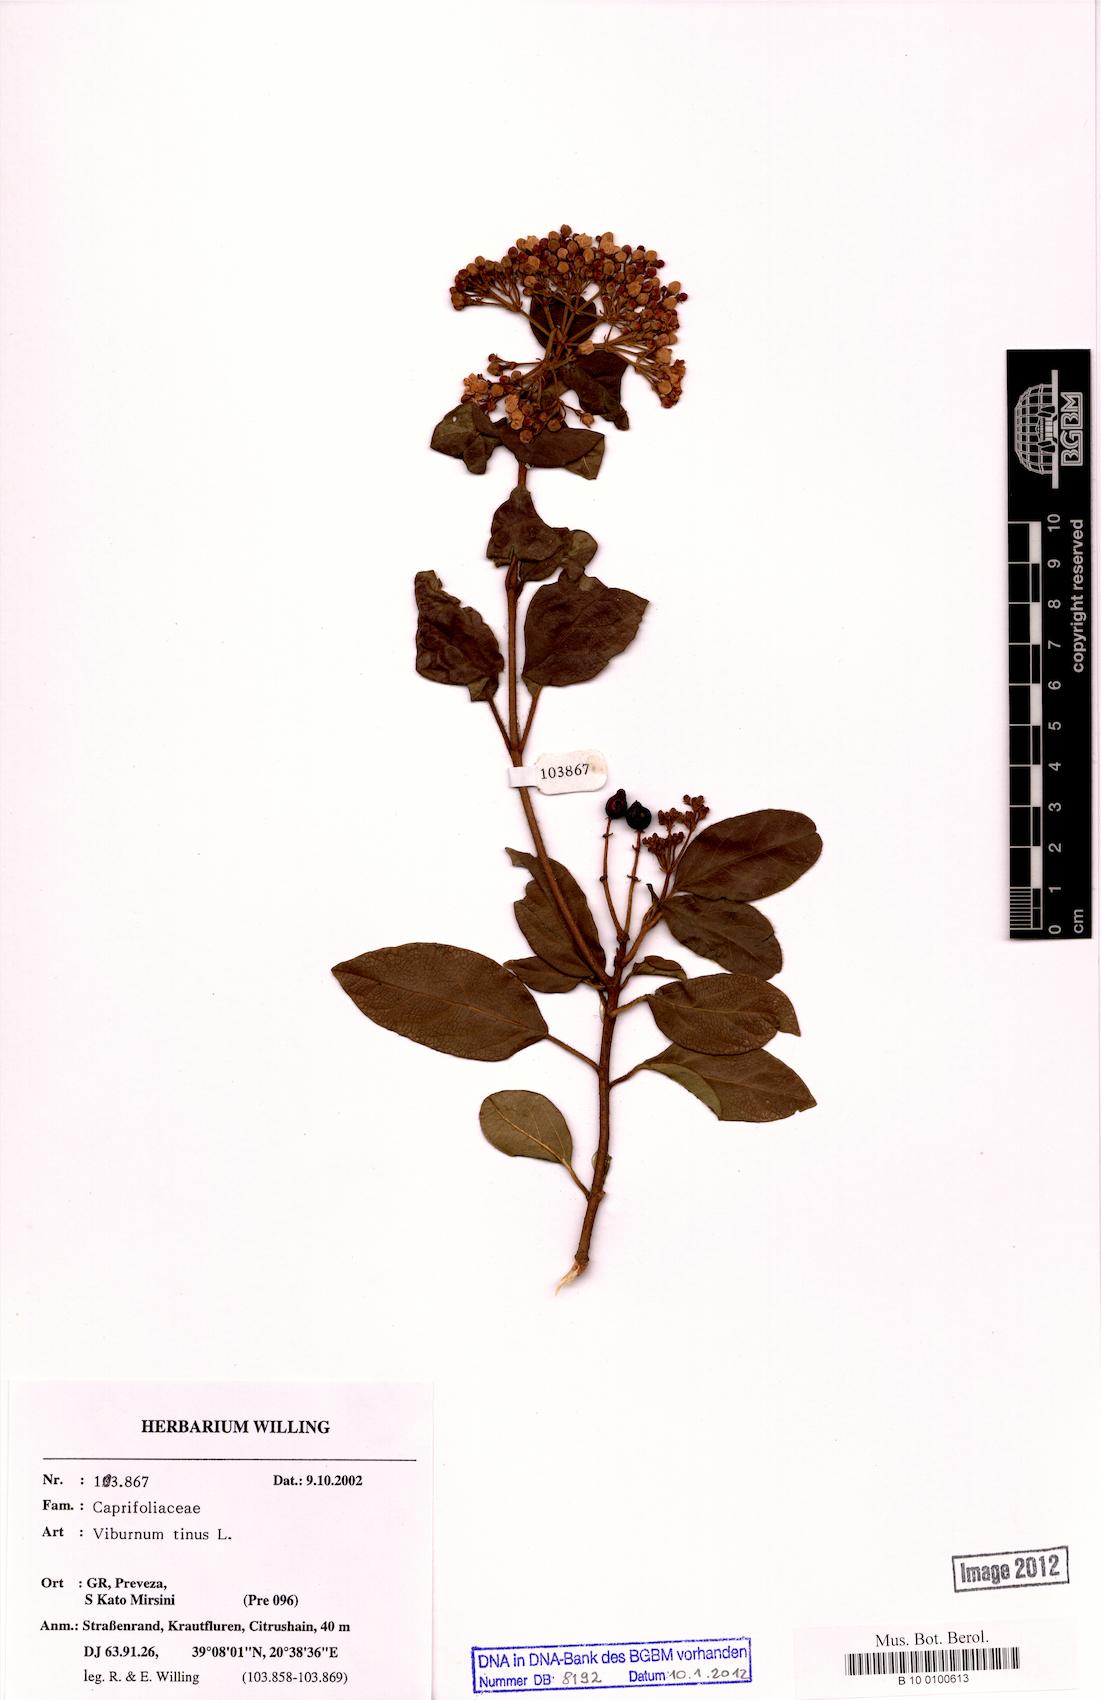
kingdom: Plantae
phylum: Tracheophyta
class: Magnoliopsida
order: Dipsacales
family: Viburnaceae
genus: Viburnum
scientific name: Viburnum tinus
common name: Laurustinus
